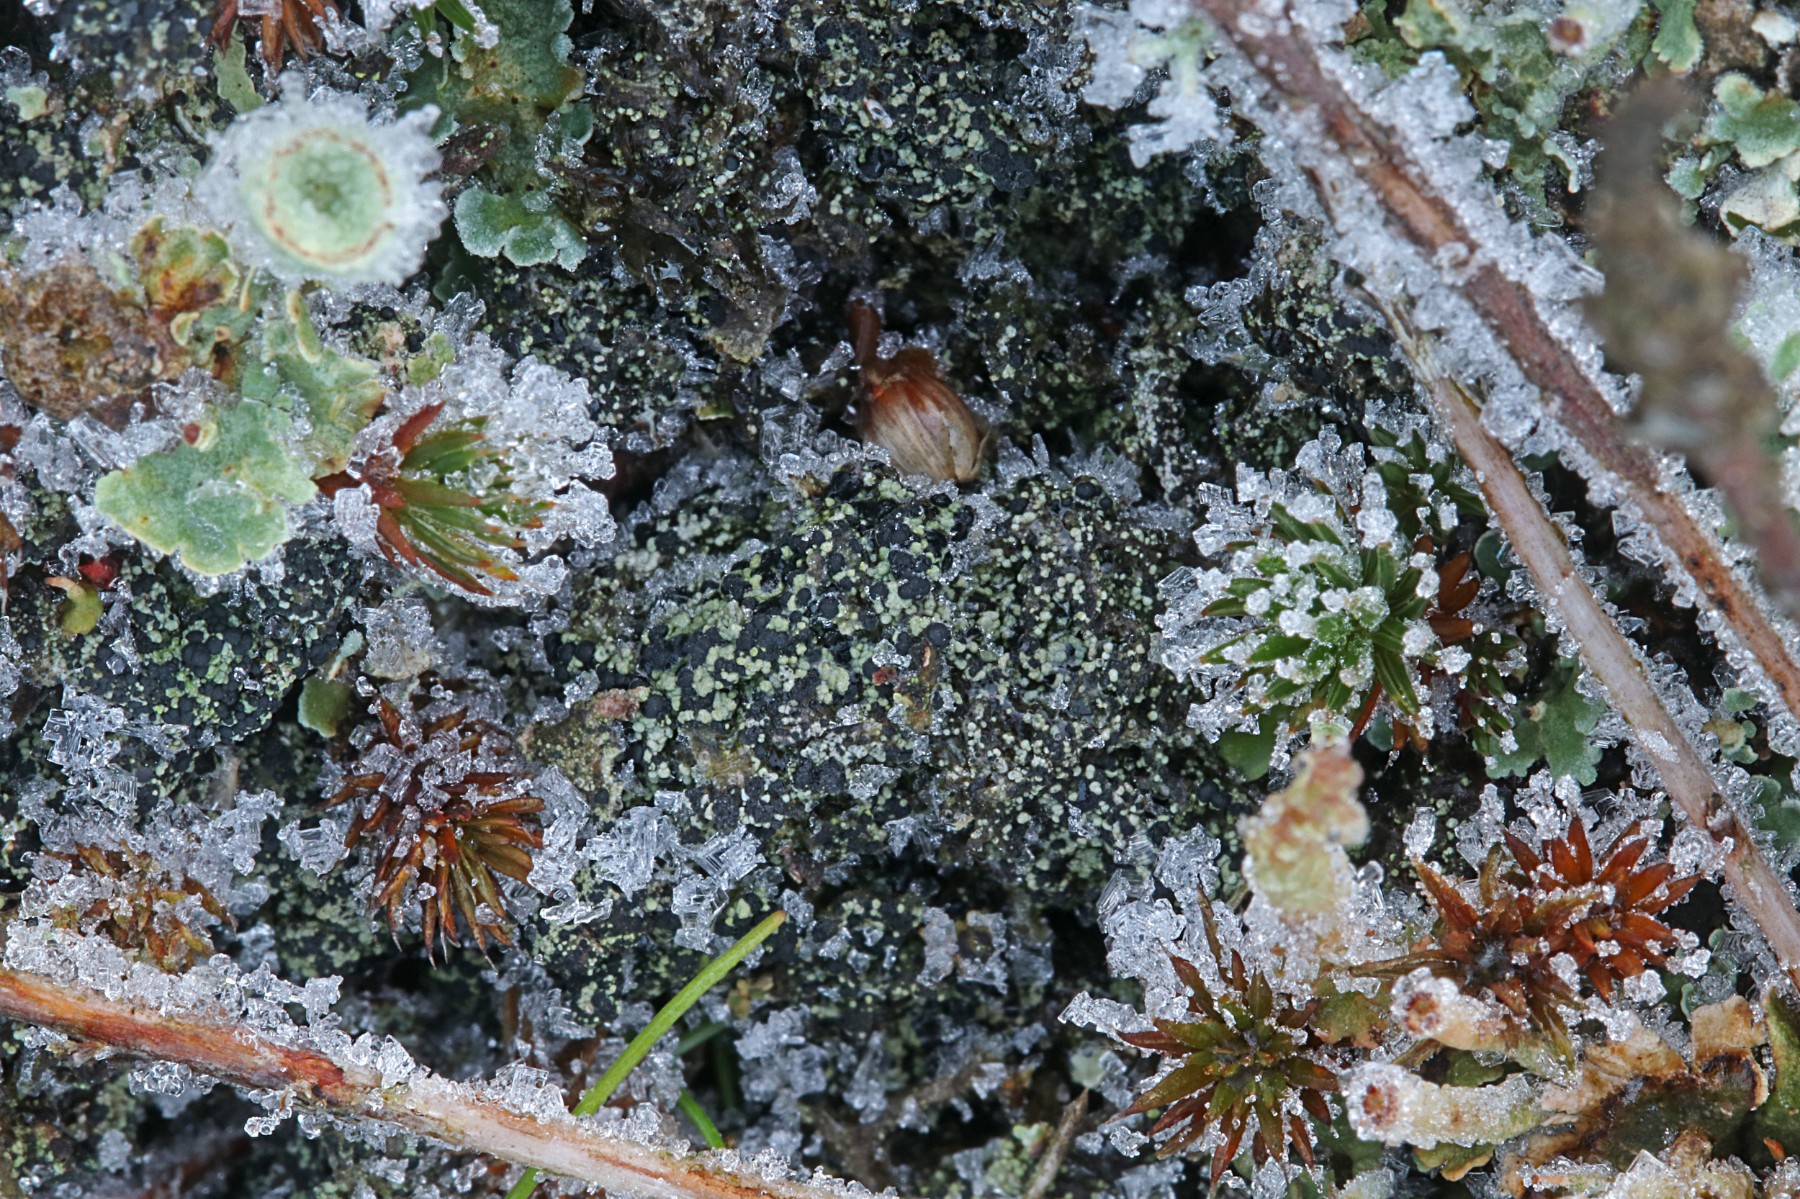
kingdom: Fungi
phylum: Ascomycota
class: Lecanoromycetes
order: Lecanorales
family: Byssolomataceae
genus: Micarea
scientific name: Micarea lignaria
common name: tørve-knaplav
